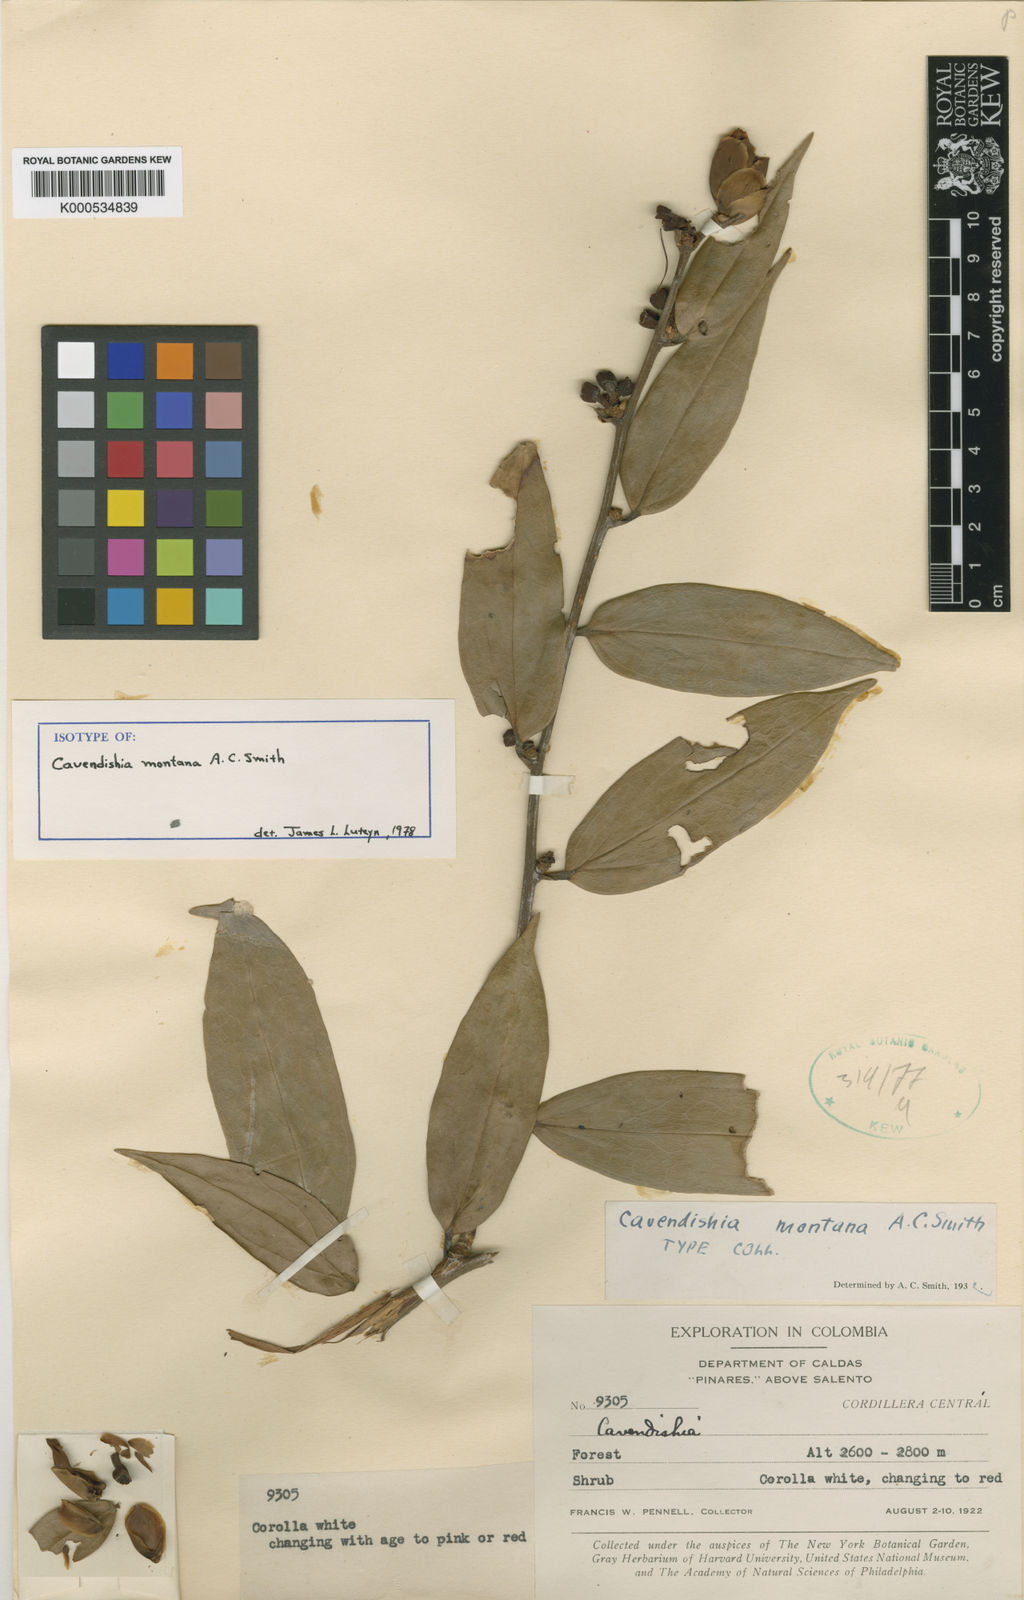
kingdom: Plantae
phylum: Tracheophyta
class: Magnoliopsida
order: Ericales
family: Ericaceae
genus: Cavendishia
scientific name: Cavendishia bracteata
